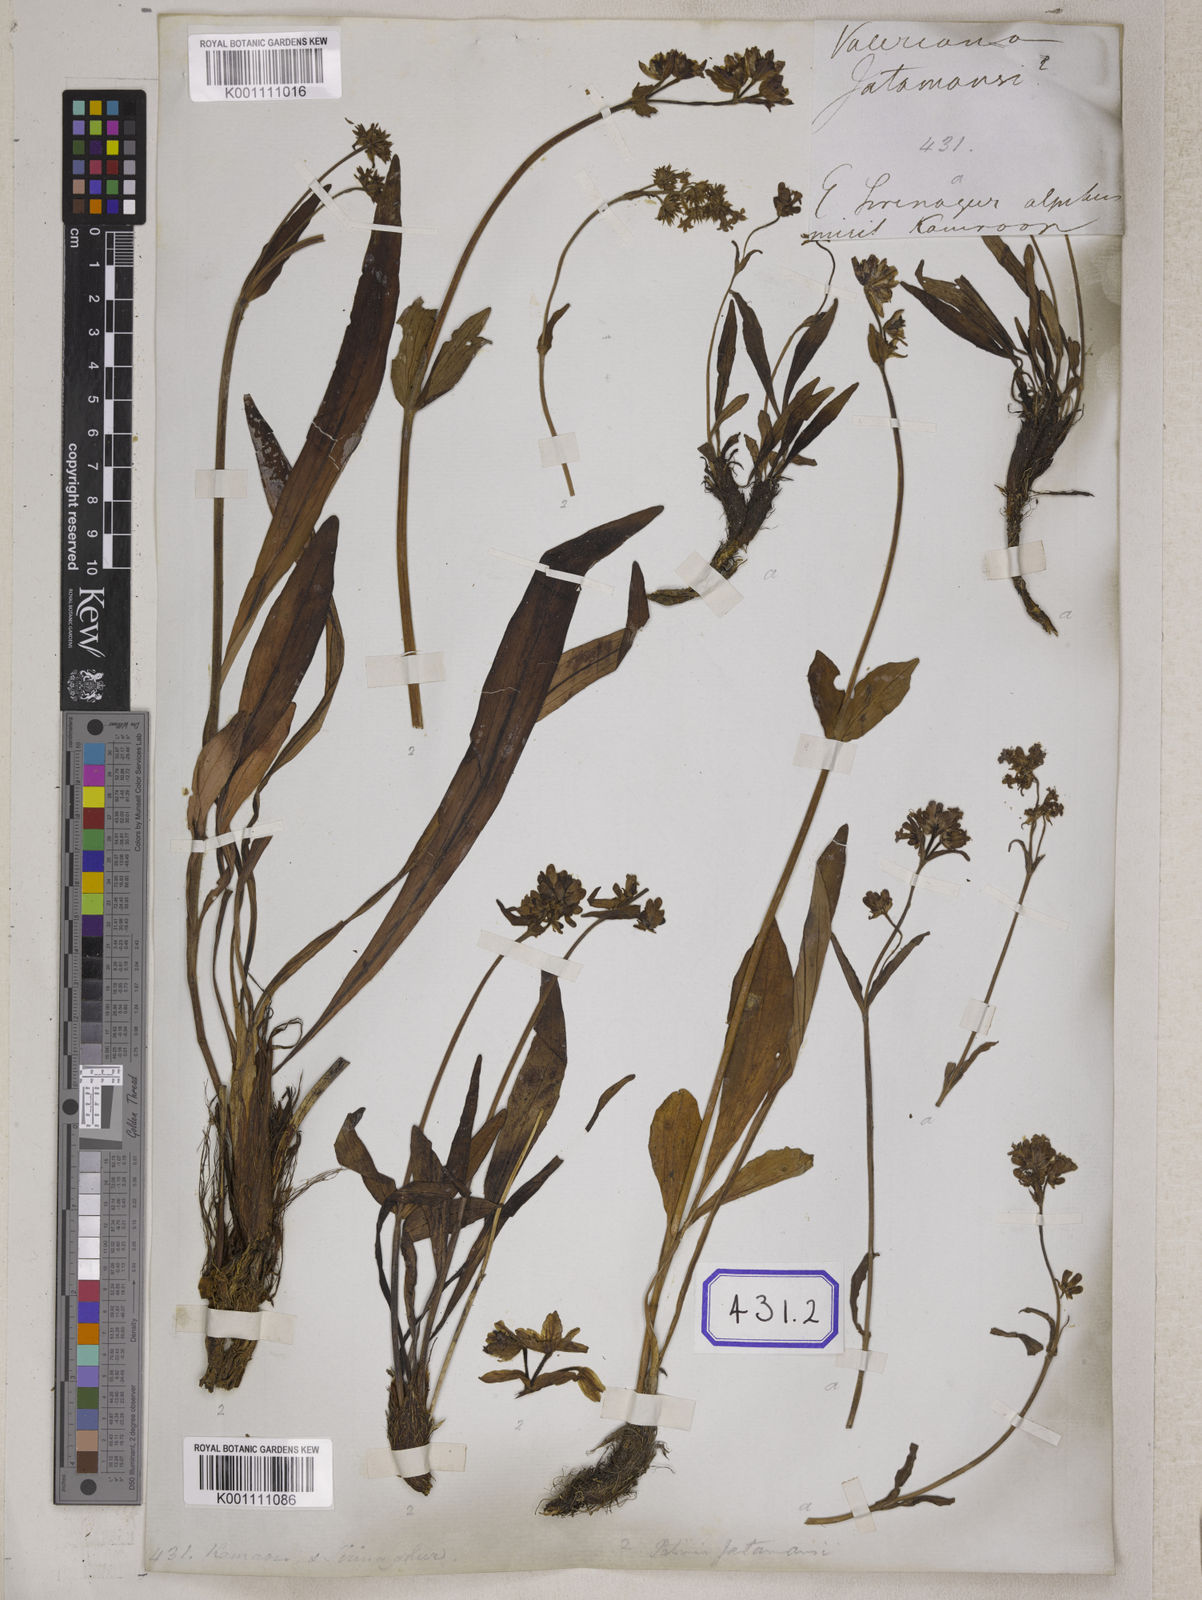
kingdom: Plantae
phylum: Tracheophyta
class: Magnoliopsida
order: Dipsacales
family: Caprifoliaceae
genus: Nardostachys
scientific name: Nardostachys jatamansi
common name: Indian nard
